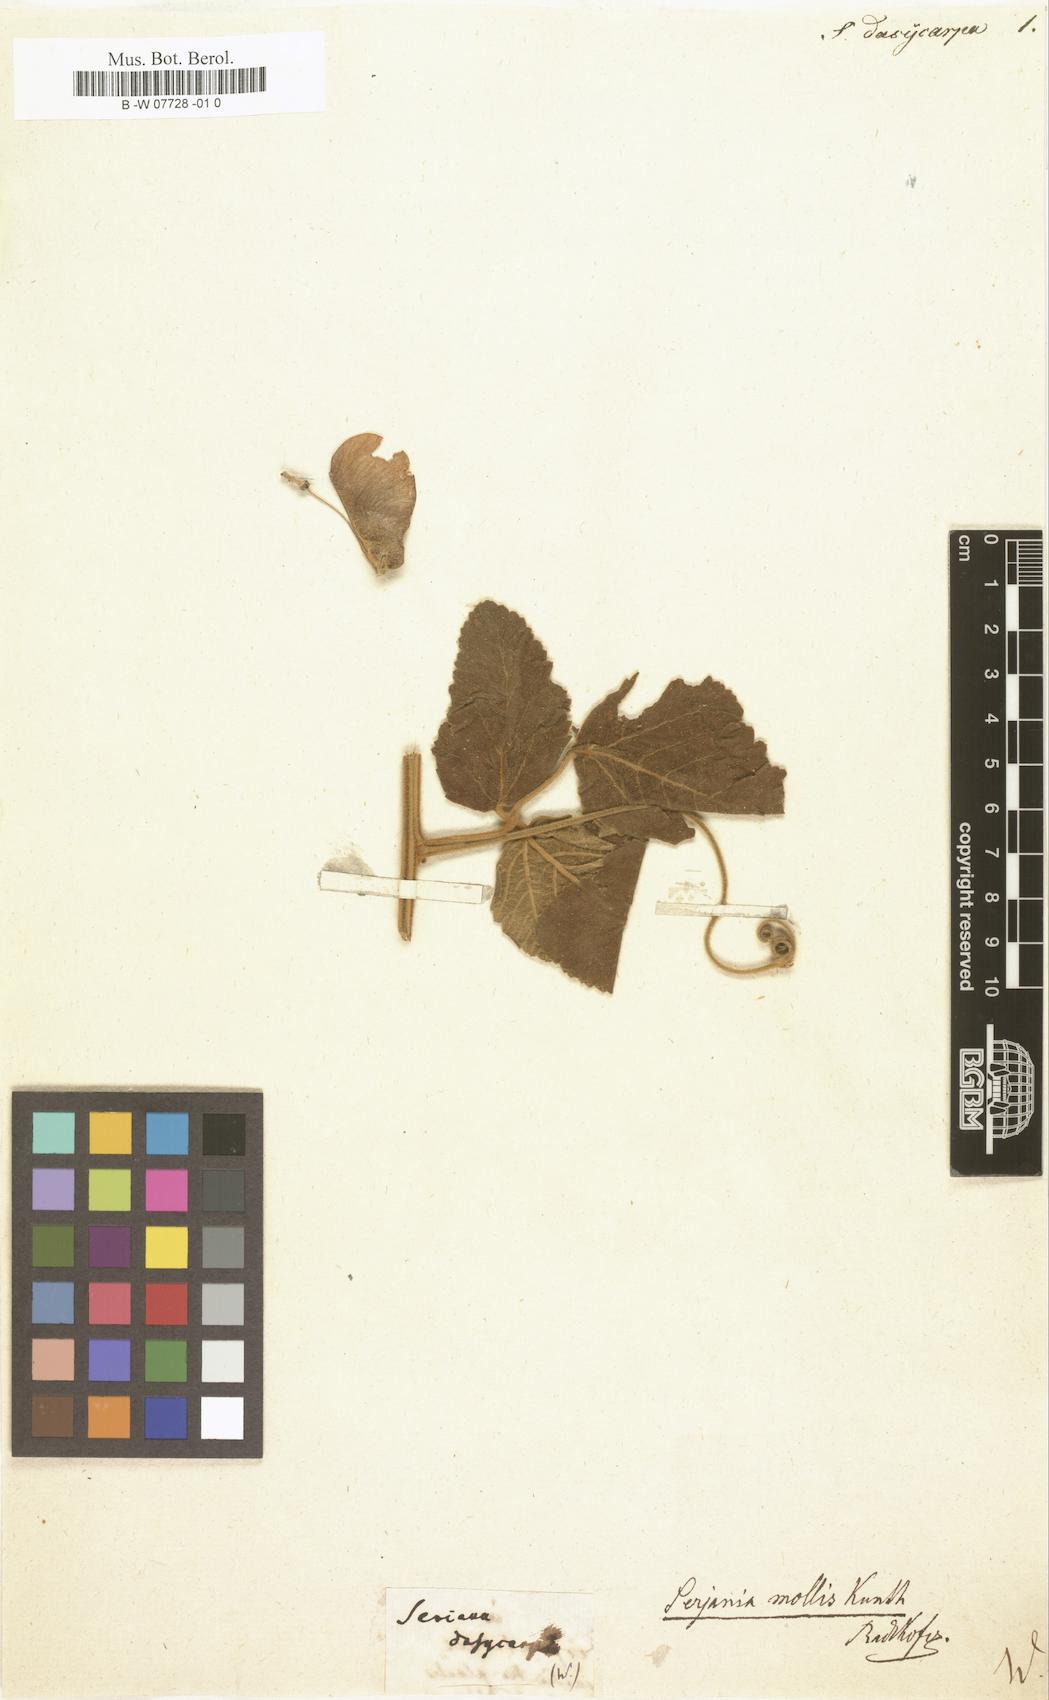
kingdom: Plantae
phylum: Tracheophyta
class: Magnoliopsida
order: Sapindales
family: Sapindaceae
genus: Seriana
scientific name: Seriana
